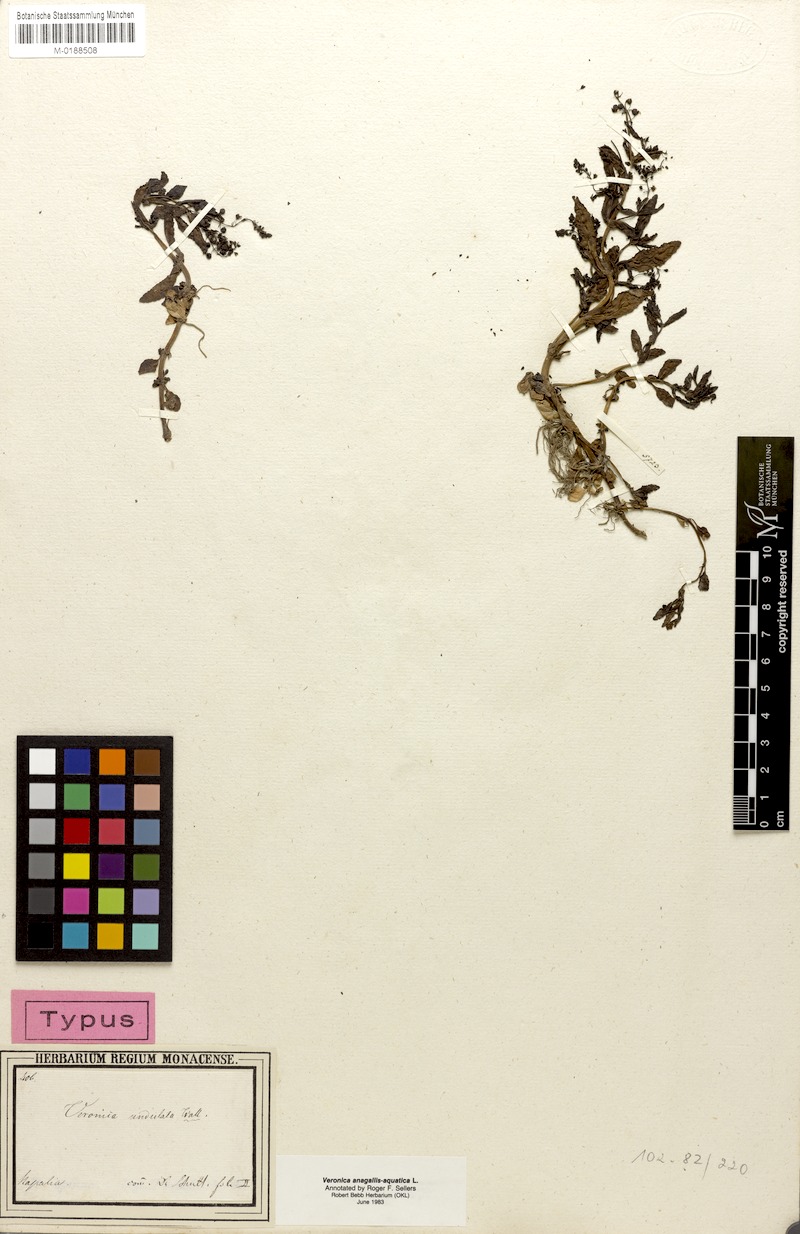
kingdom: Plantae
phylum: Tracheophyta
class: Magnoliopsida
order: Lamiales
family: Plantaginaceae
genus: Veronica
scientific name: Veronica undulata
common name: Undulate speedwell
